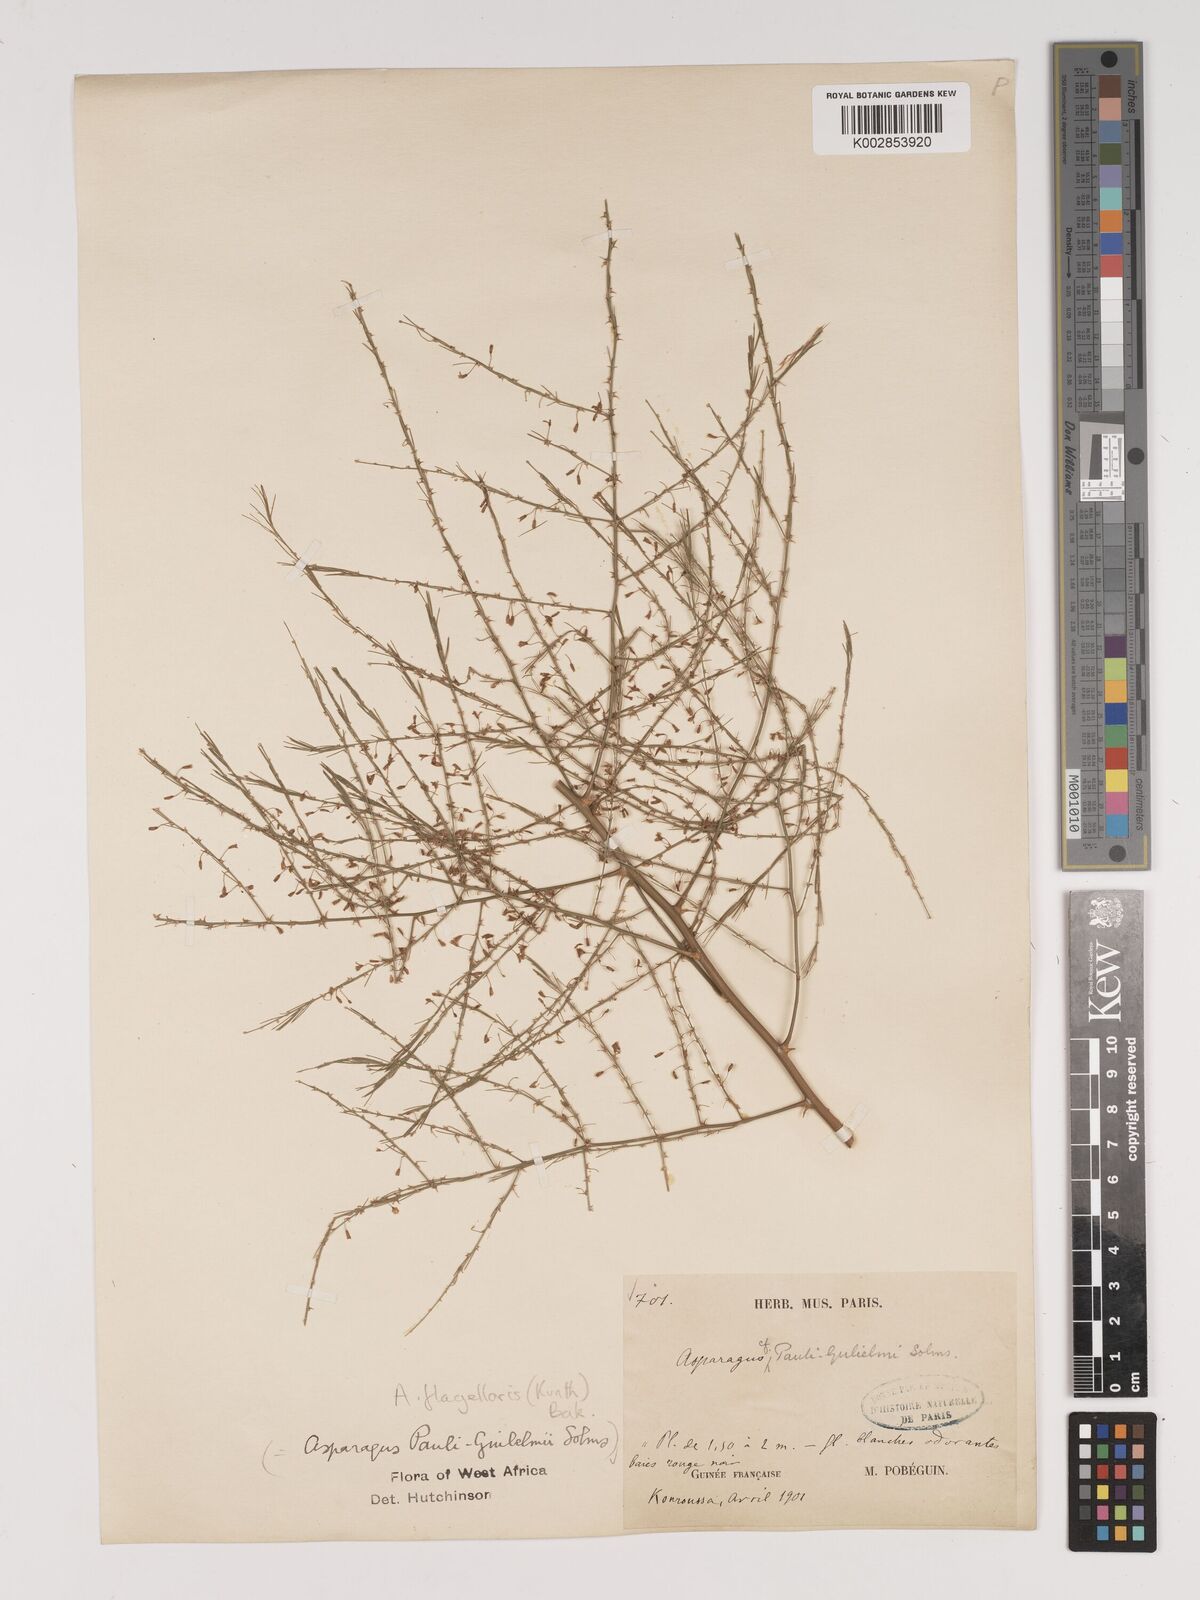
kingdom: Plantae
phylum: Tracheophyta
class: Liliopsida
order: Asparagales
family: Asparagaceae
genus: Asparagus
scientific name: Asparagus flagellaris
